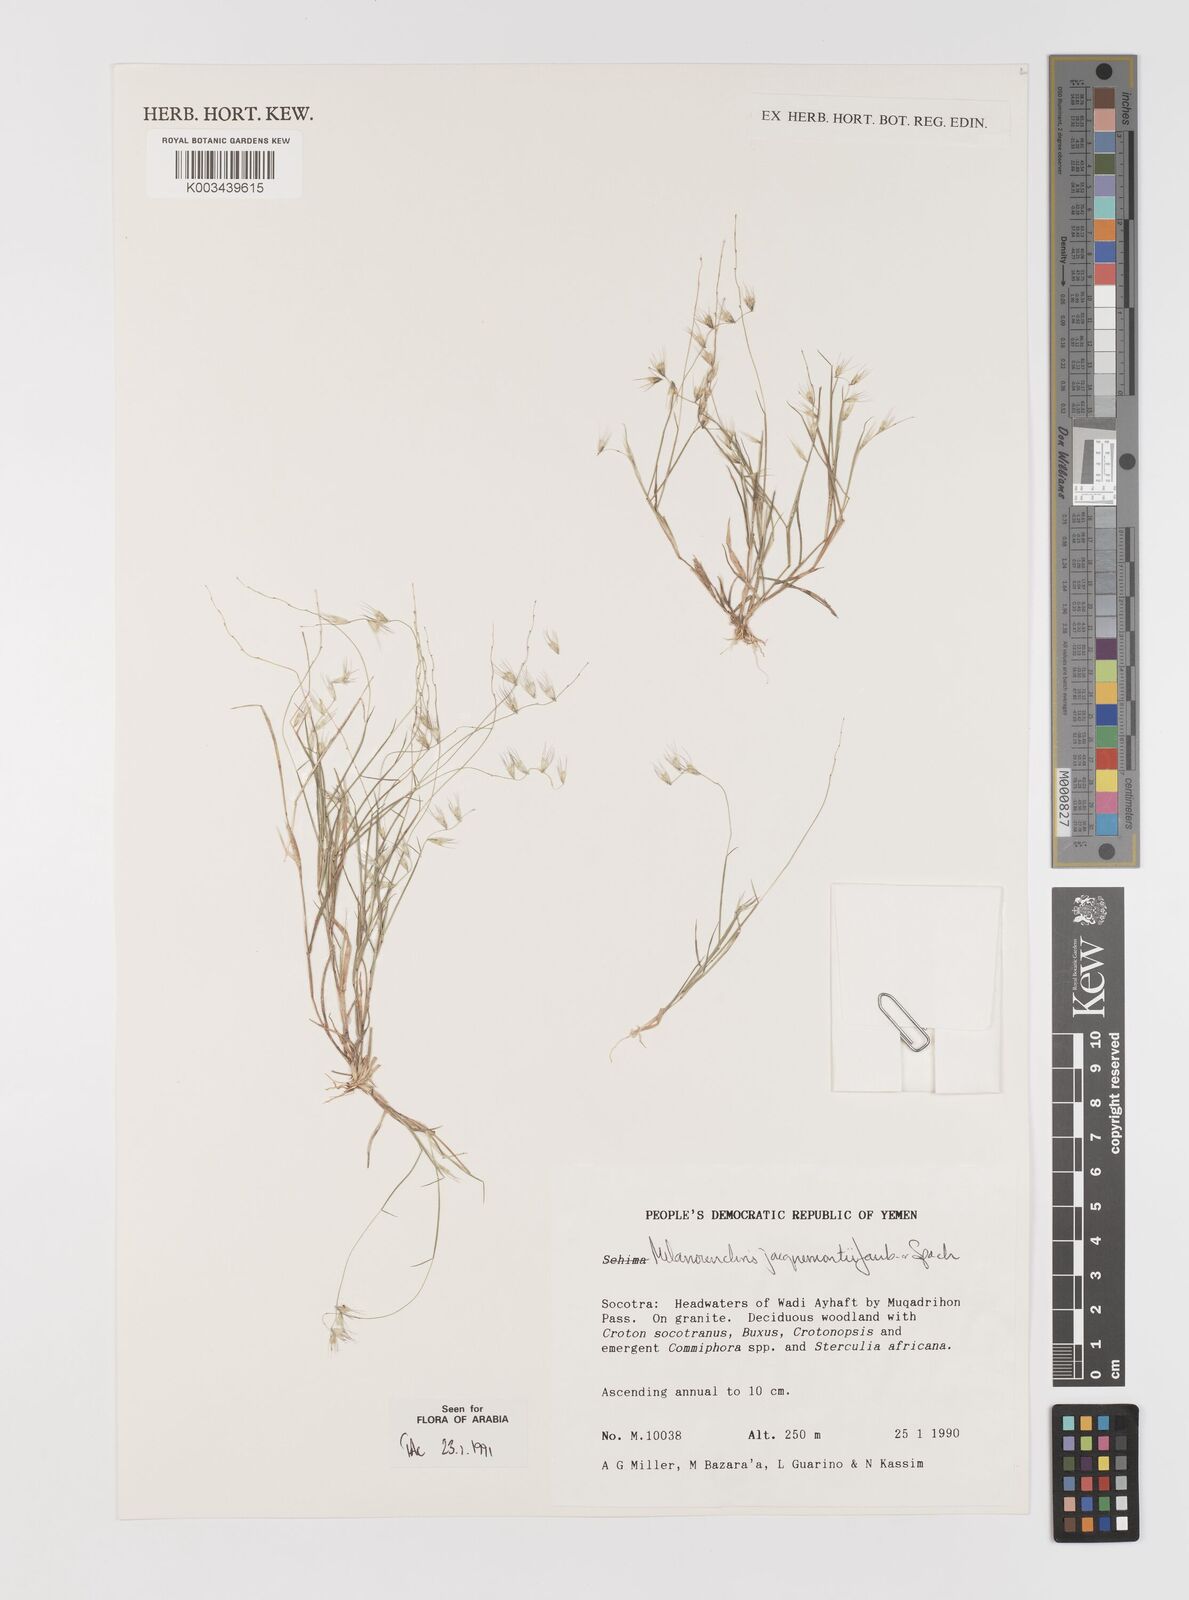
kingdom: Plantae
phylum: Tracheophyta
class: Liliopsida
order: Poales
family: Poaceae
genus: Melanocenchris
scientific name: Melanocenchris jacquemontii
